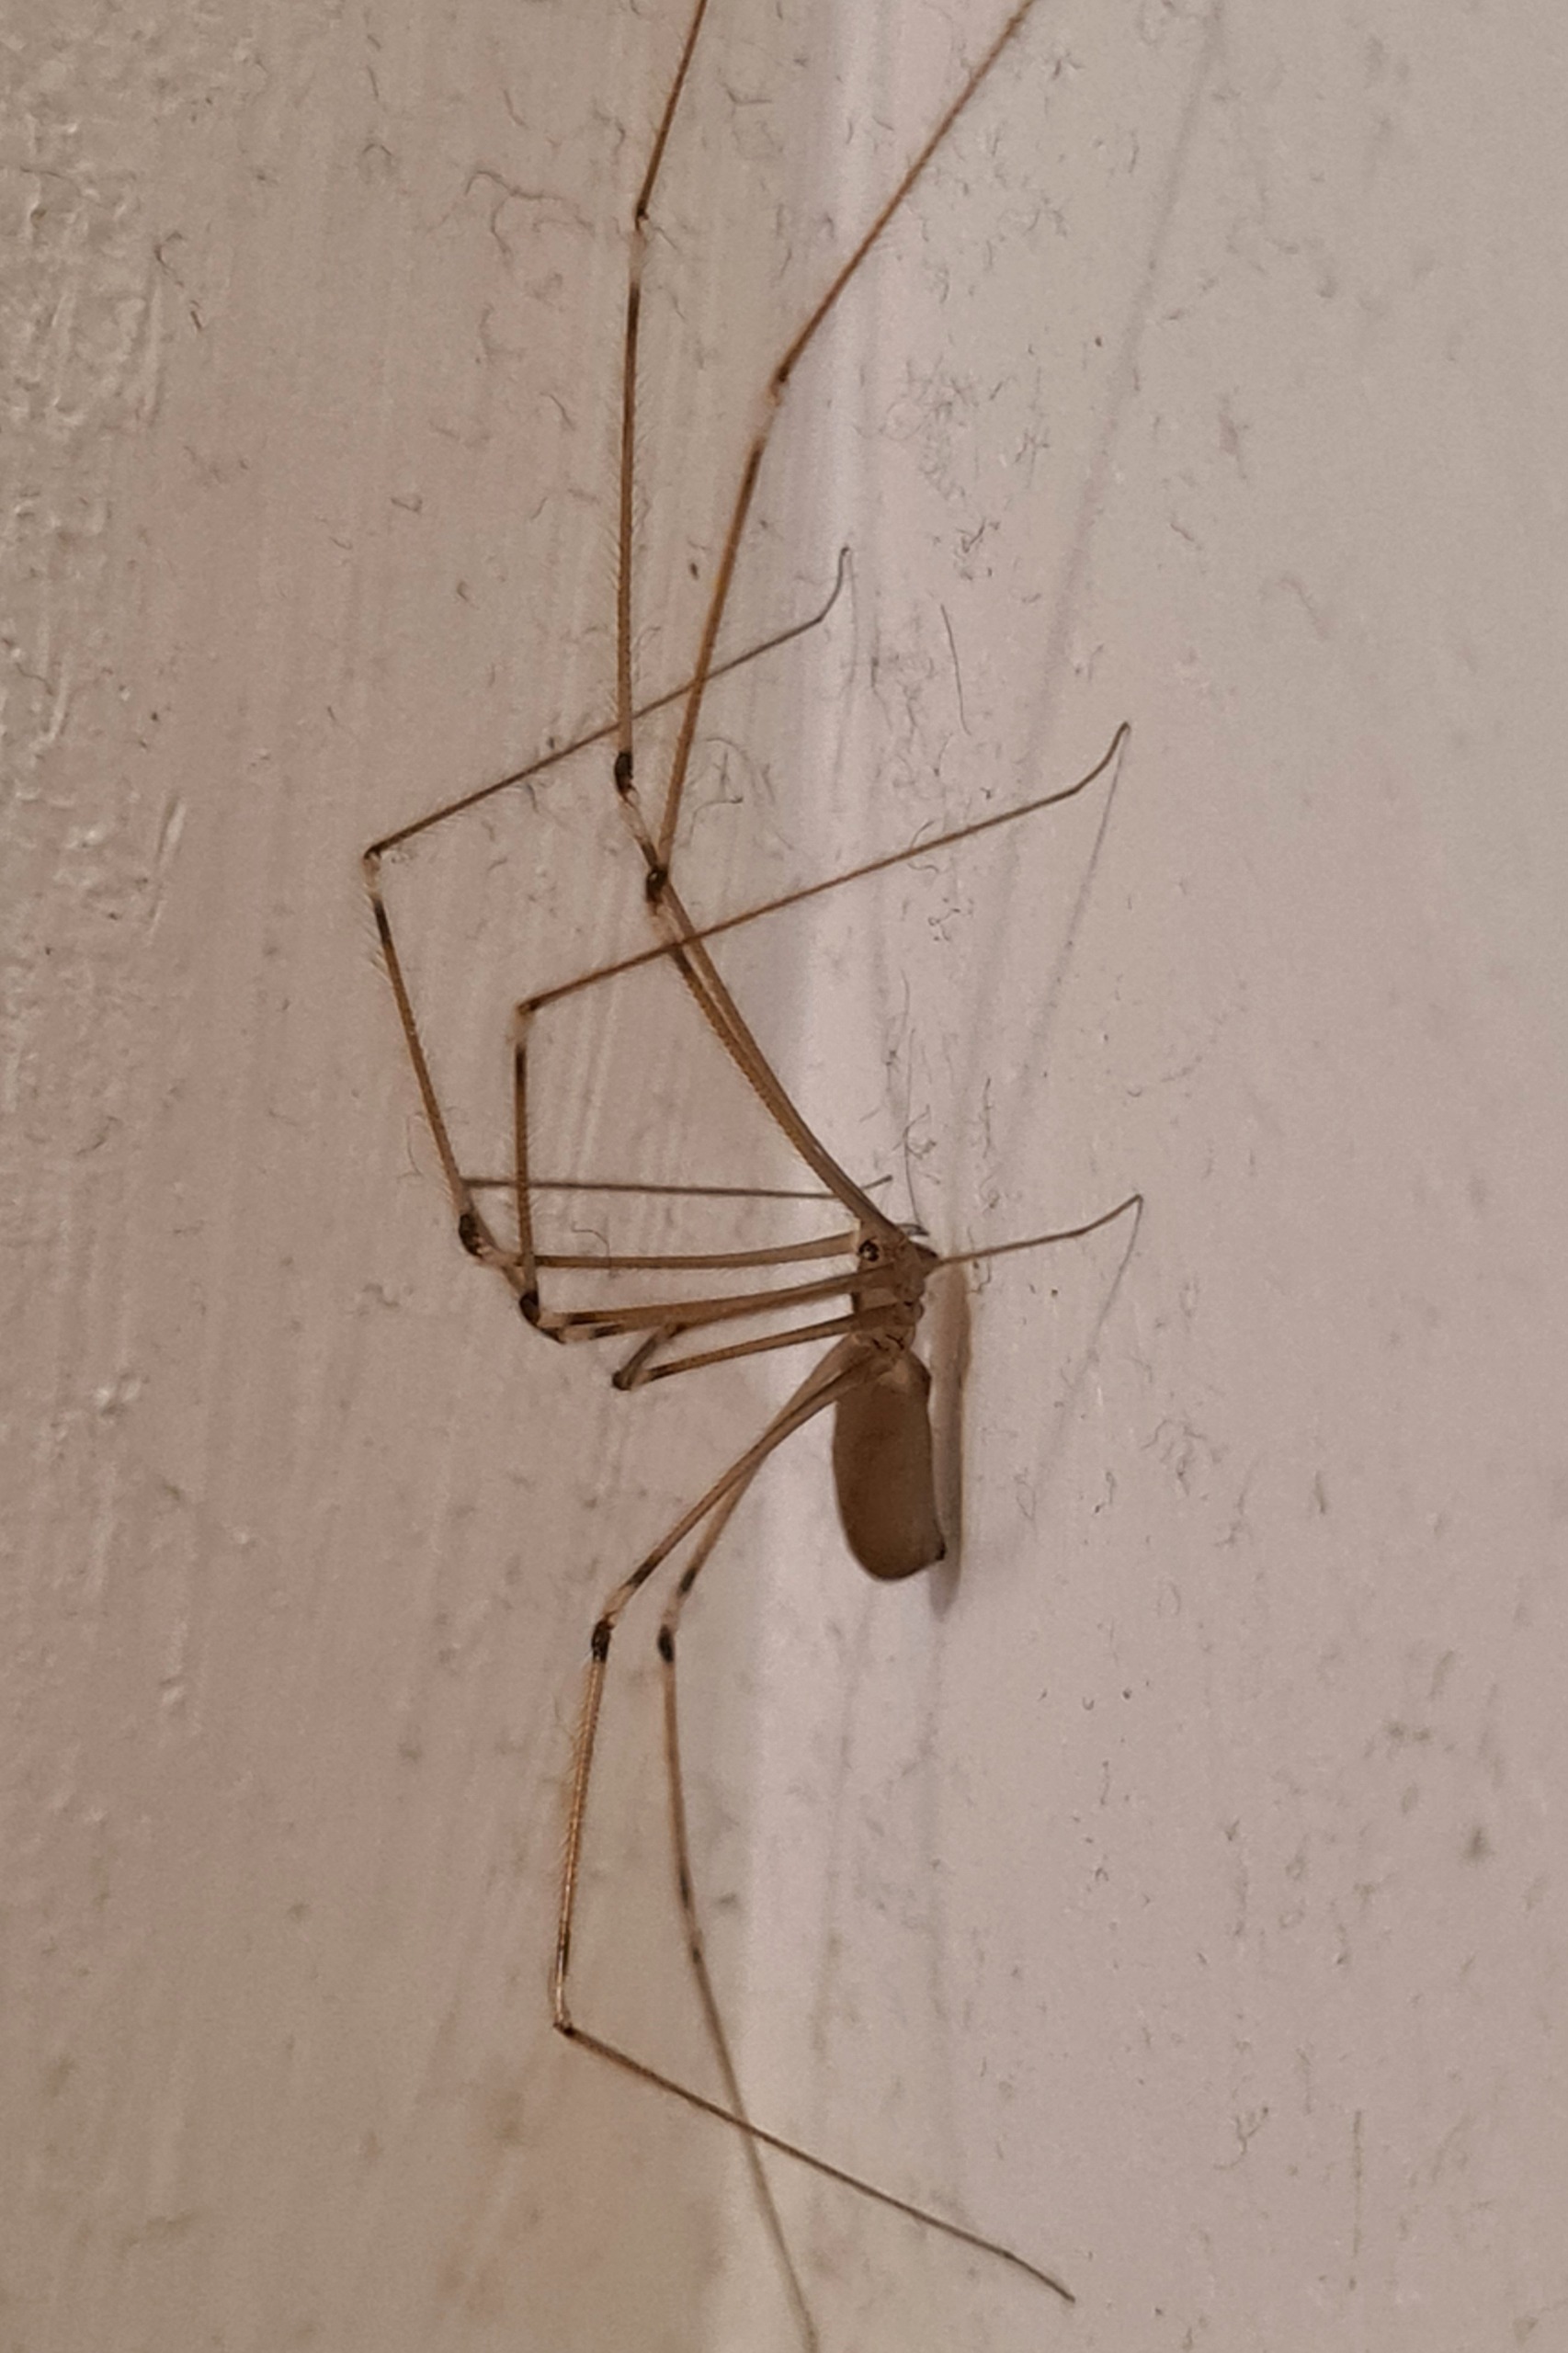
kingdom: Animalia
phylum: Arthropoda
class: Arachnida
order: Araneae
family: Pholcidae
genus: Pholcus
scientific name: Pholcus phalangioides
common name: Mejeredderkop
